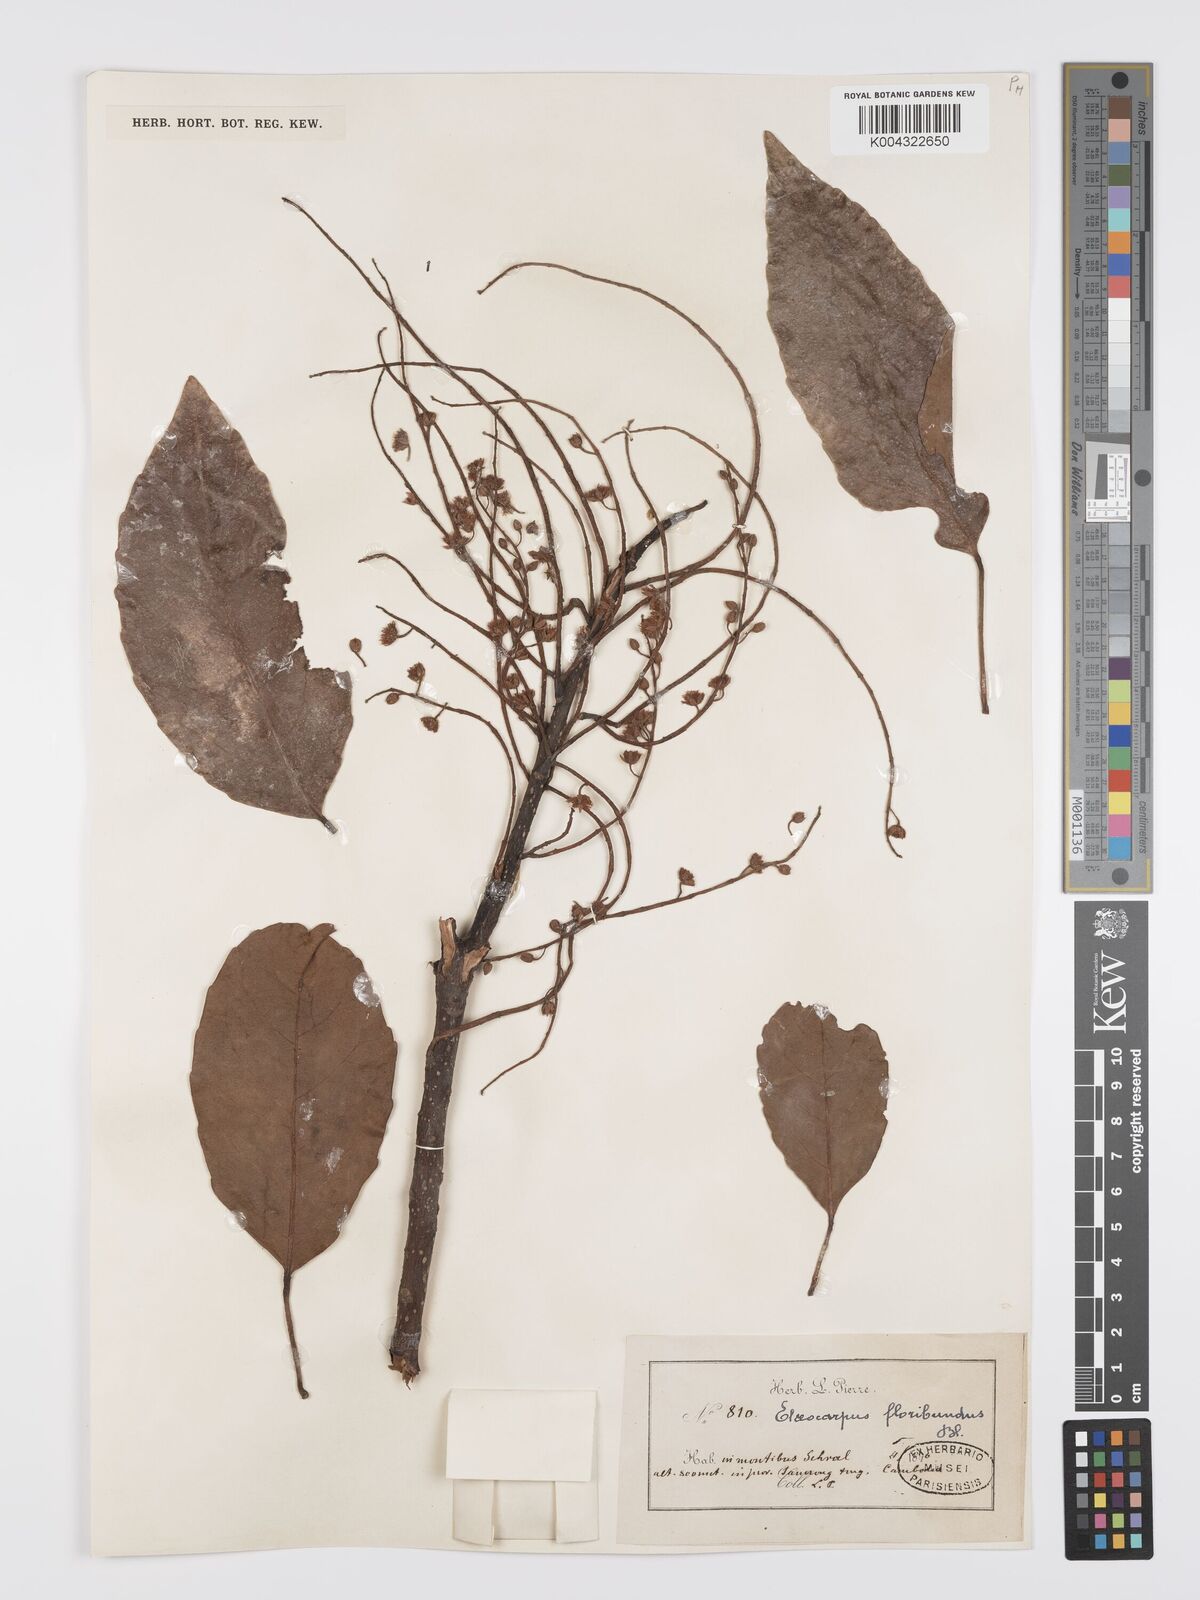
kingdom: Plantae
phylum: Tracheophyta
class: Magnoliopsida
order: Oxalidales
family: Elaeocarpaceae
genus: Elaeocarpus
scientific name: Elaeocarpus floribundus
